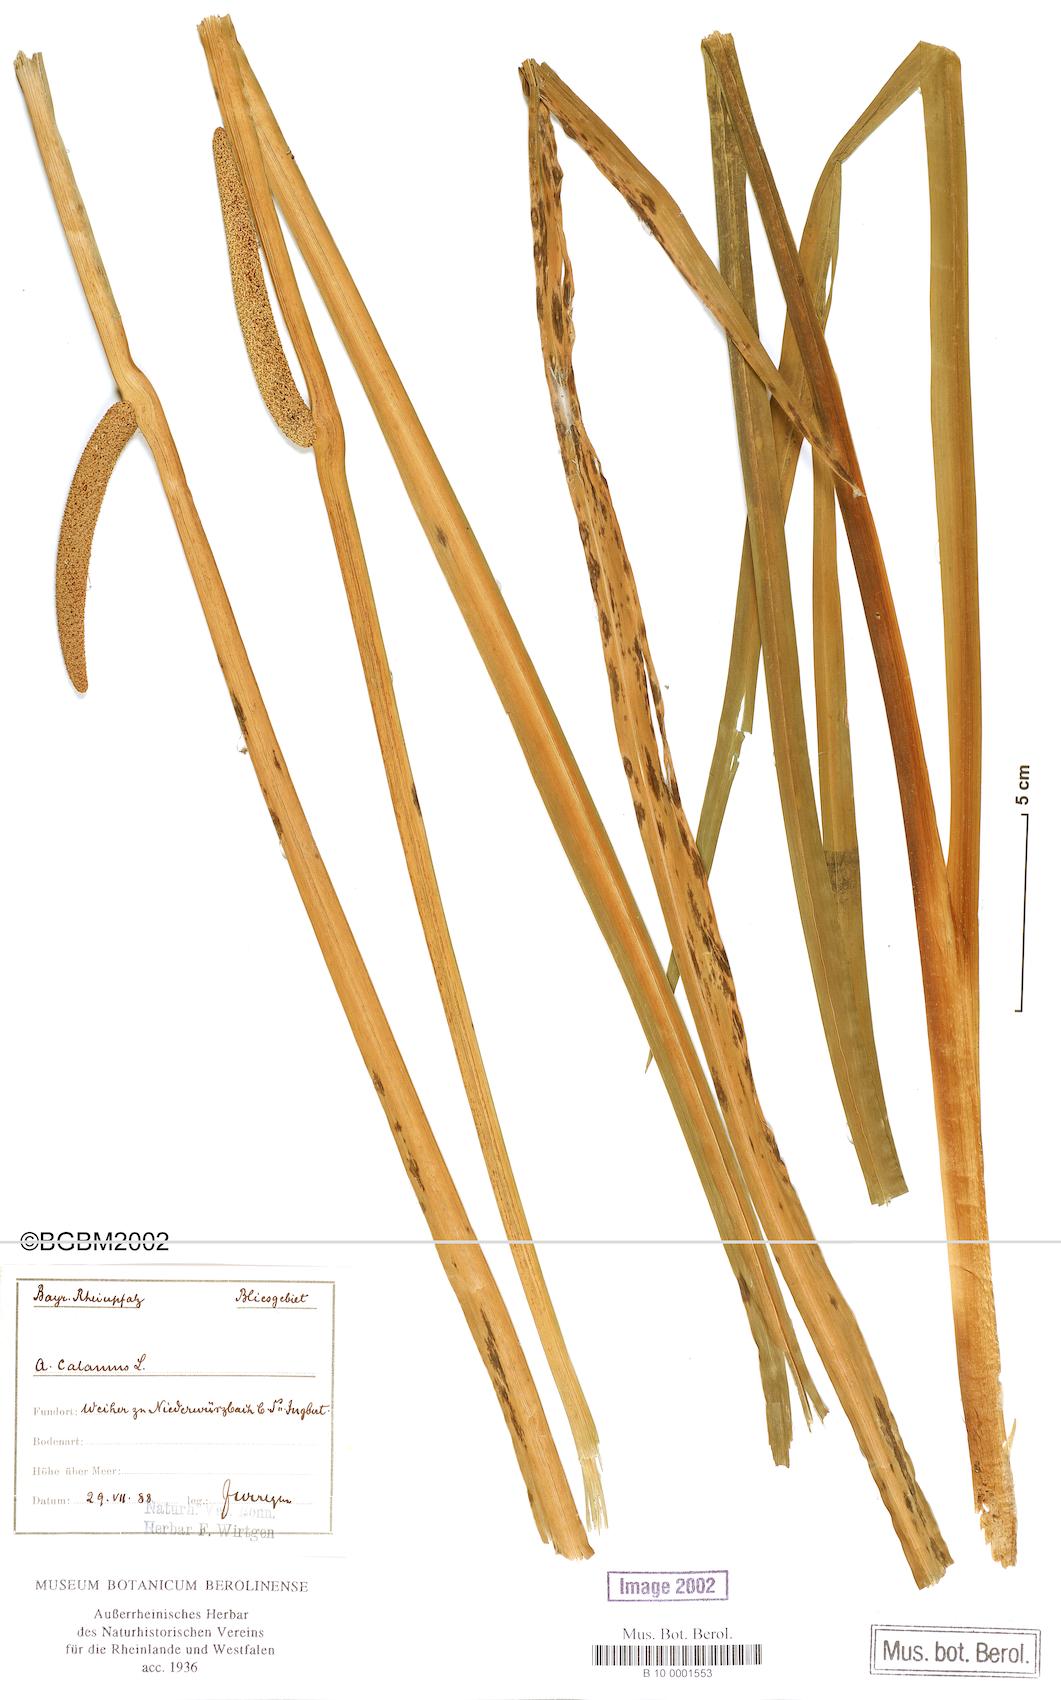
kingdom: Plantae
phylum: Tracheophyta
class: Liliopsida
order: Acorales
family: Acoraceae
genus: Acorus
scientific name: Acorus calamus
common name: Sweet-flag
